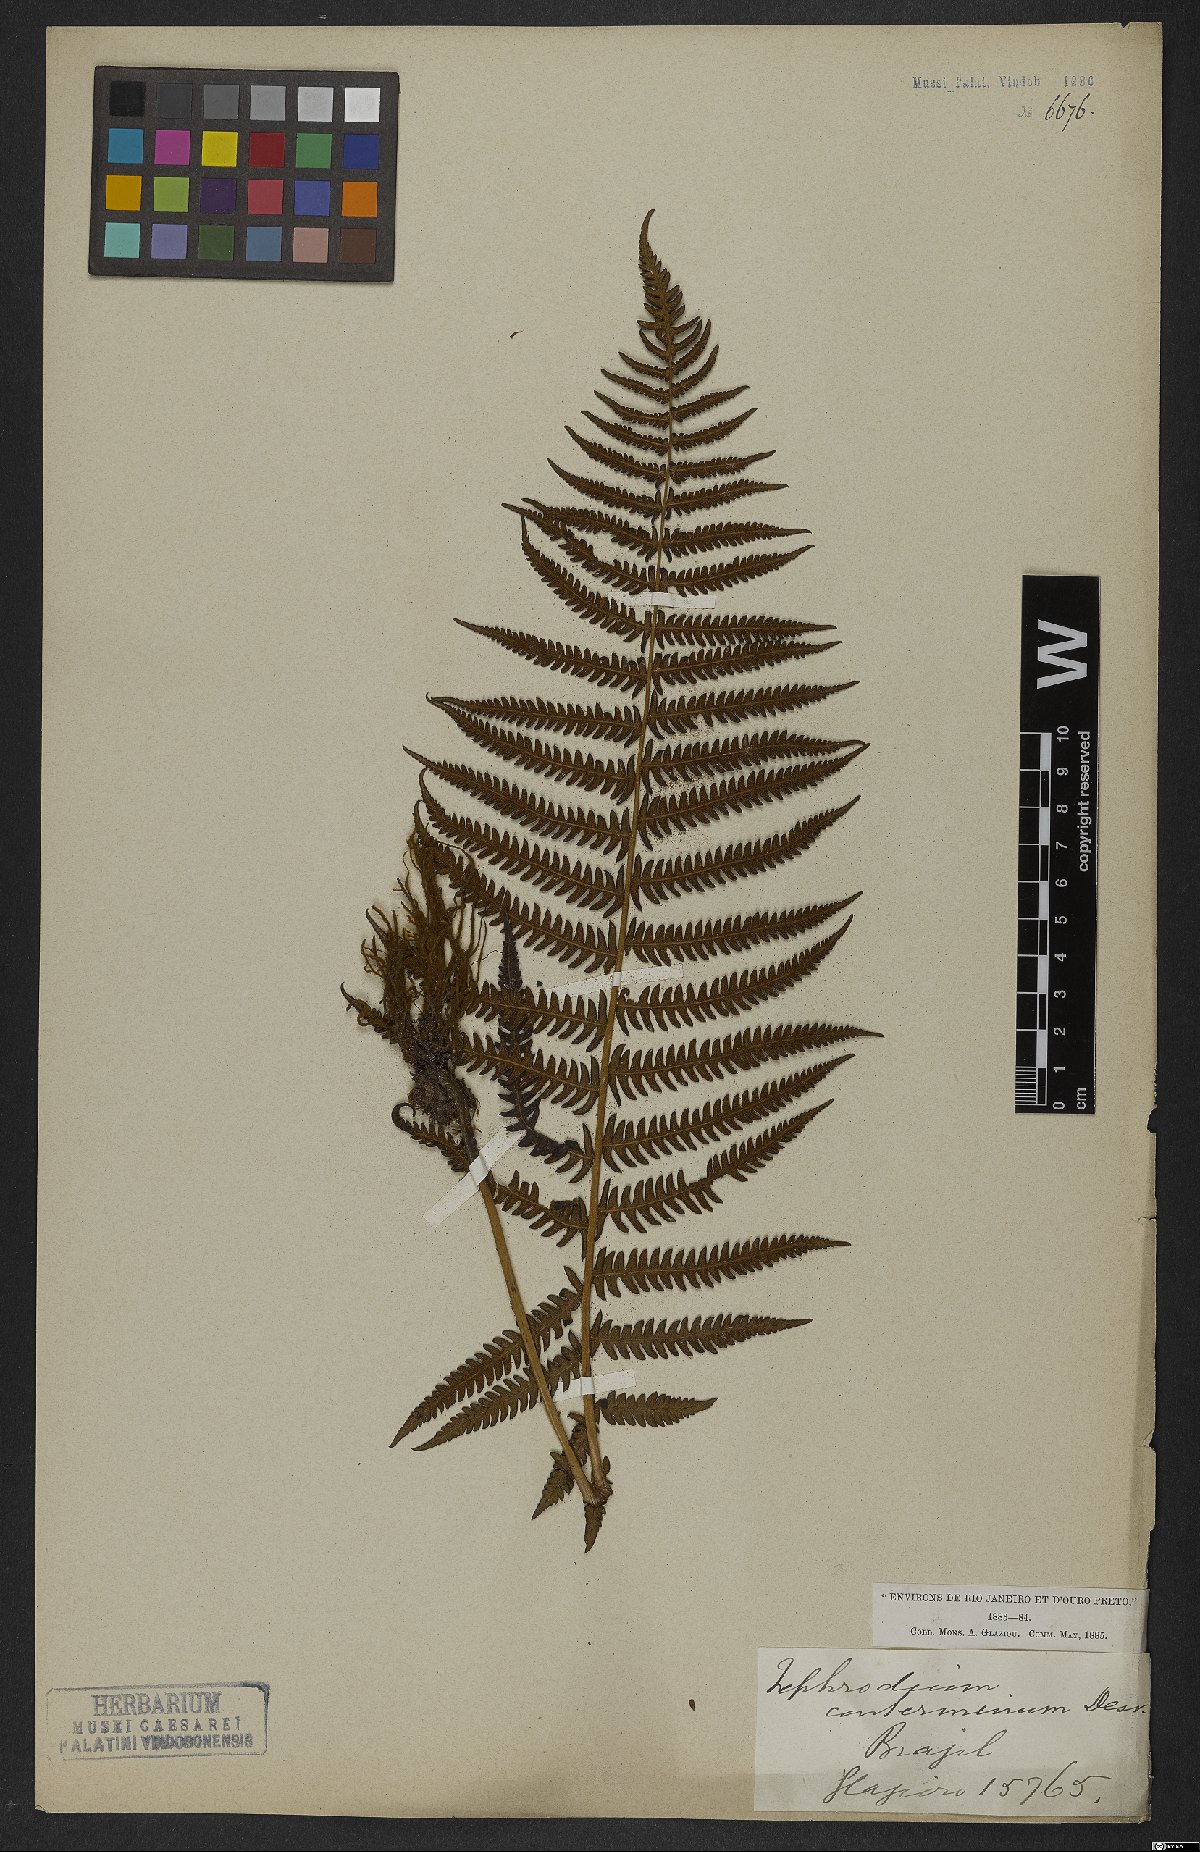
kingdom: Plantae
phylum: Tracheophyta
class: Polypodiopsida
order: Polypodiales
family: Thelypteridaceae
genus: Amauropelta
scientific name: Amauropelta opposita
